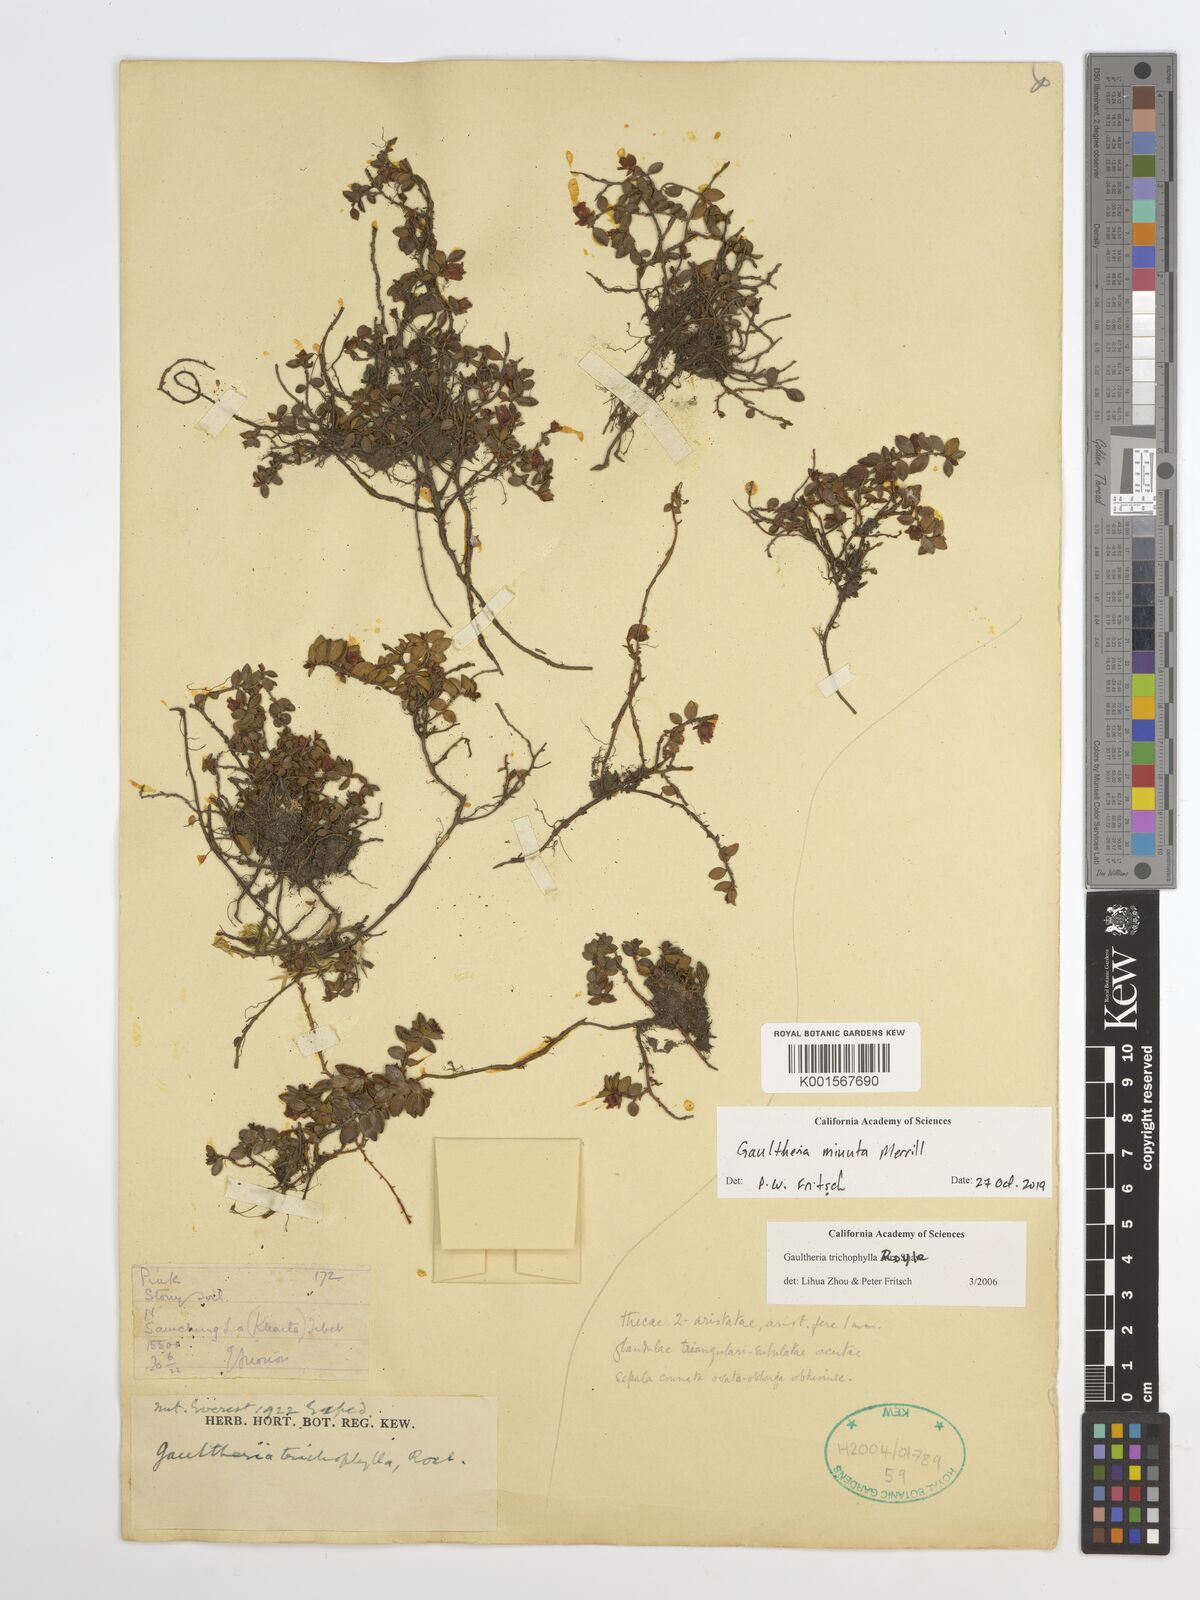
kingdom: Plantae
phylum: Tracheophyta
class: Magnoliopsida
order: Ericales
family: Ericaceae
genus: Gaultheria
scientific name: Gaultheria minuta
